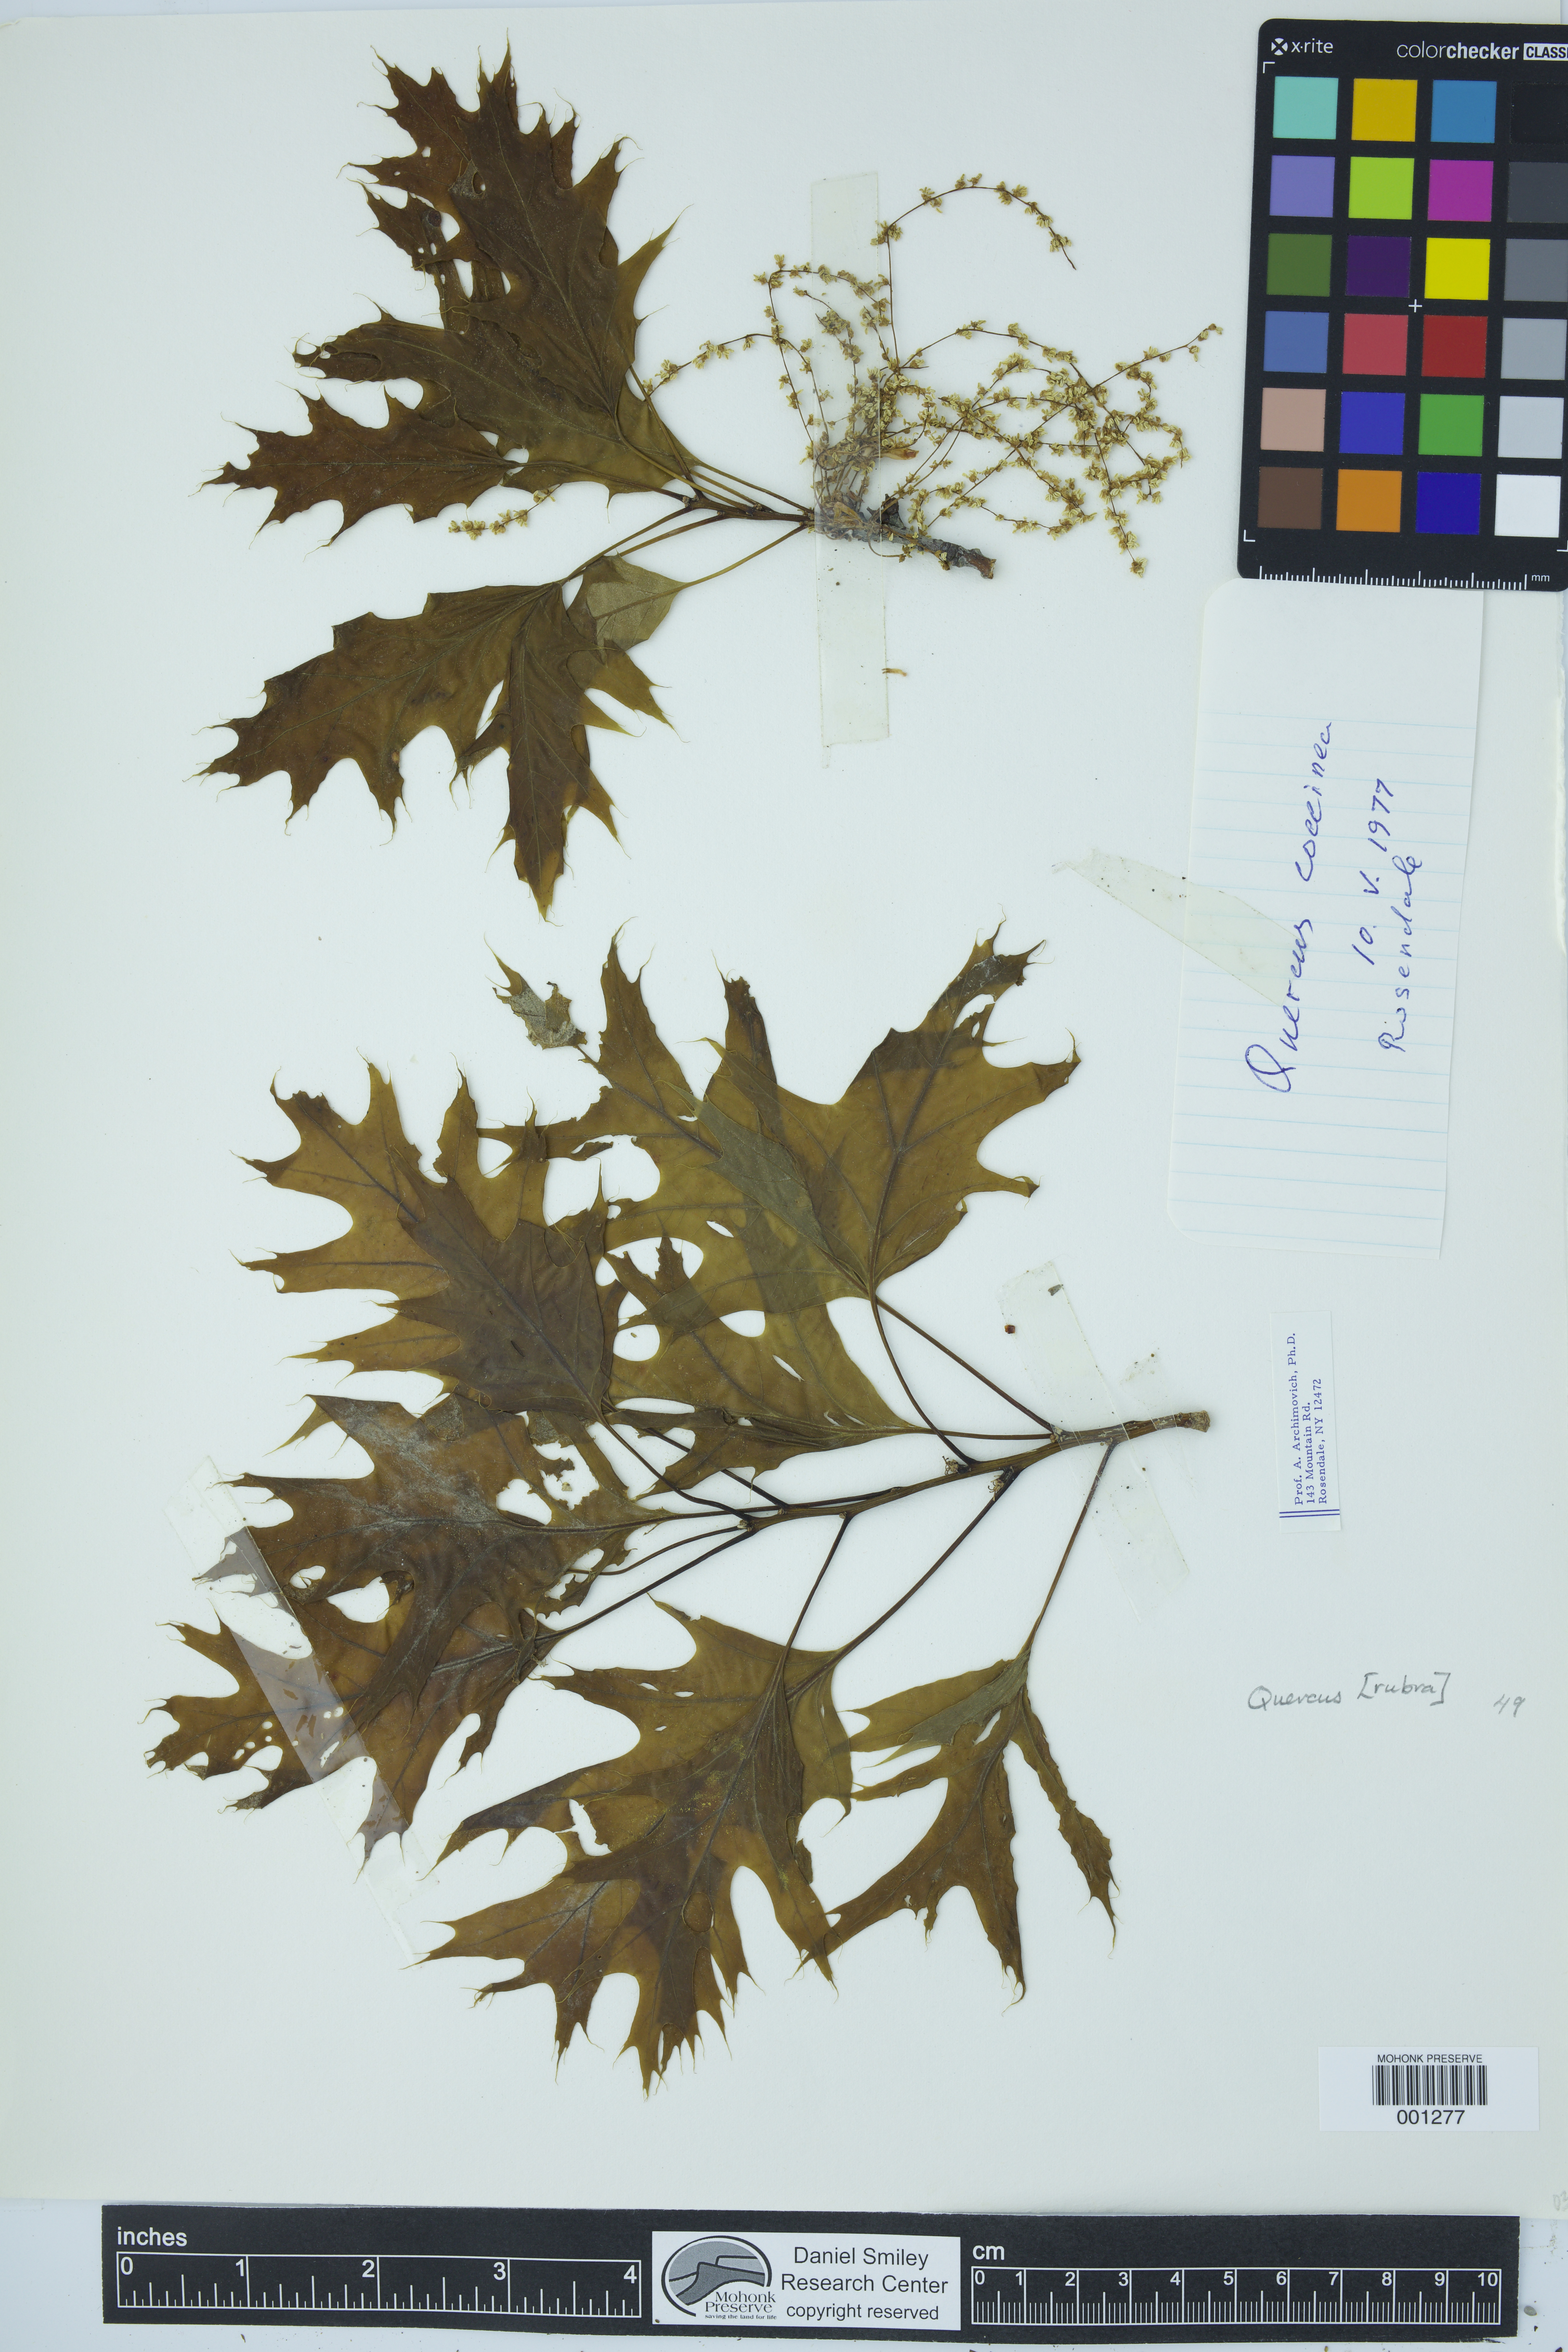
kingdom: Plantae
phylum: Tracheophyta
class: Magnoliopsida
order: Fagales
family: Fagaceae
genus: Quercus
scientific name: Quercus rubra
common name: Red oak
